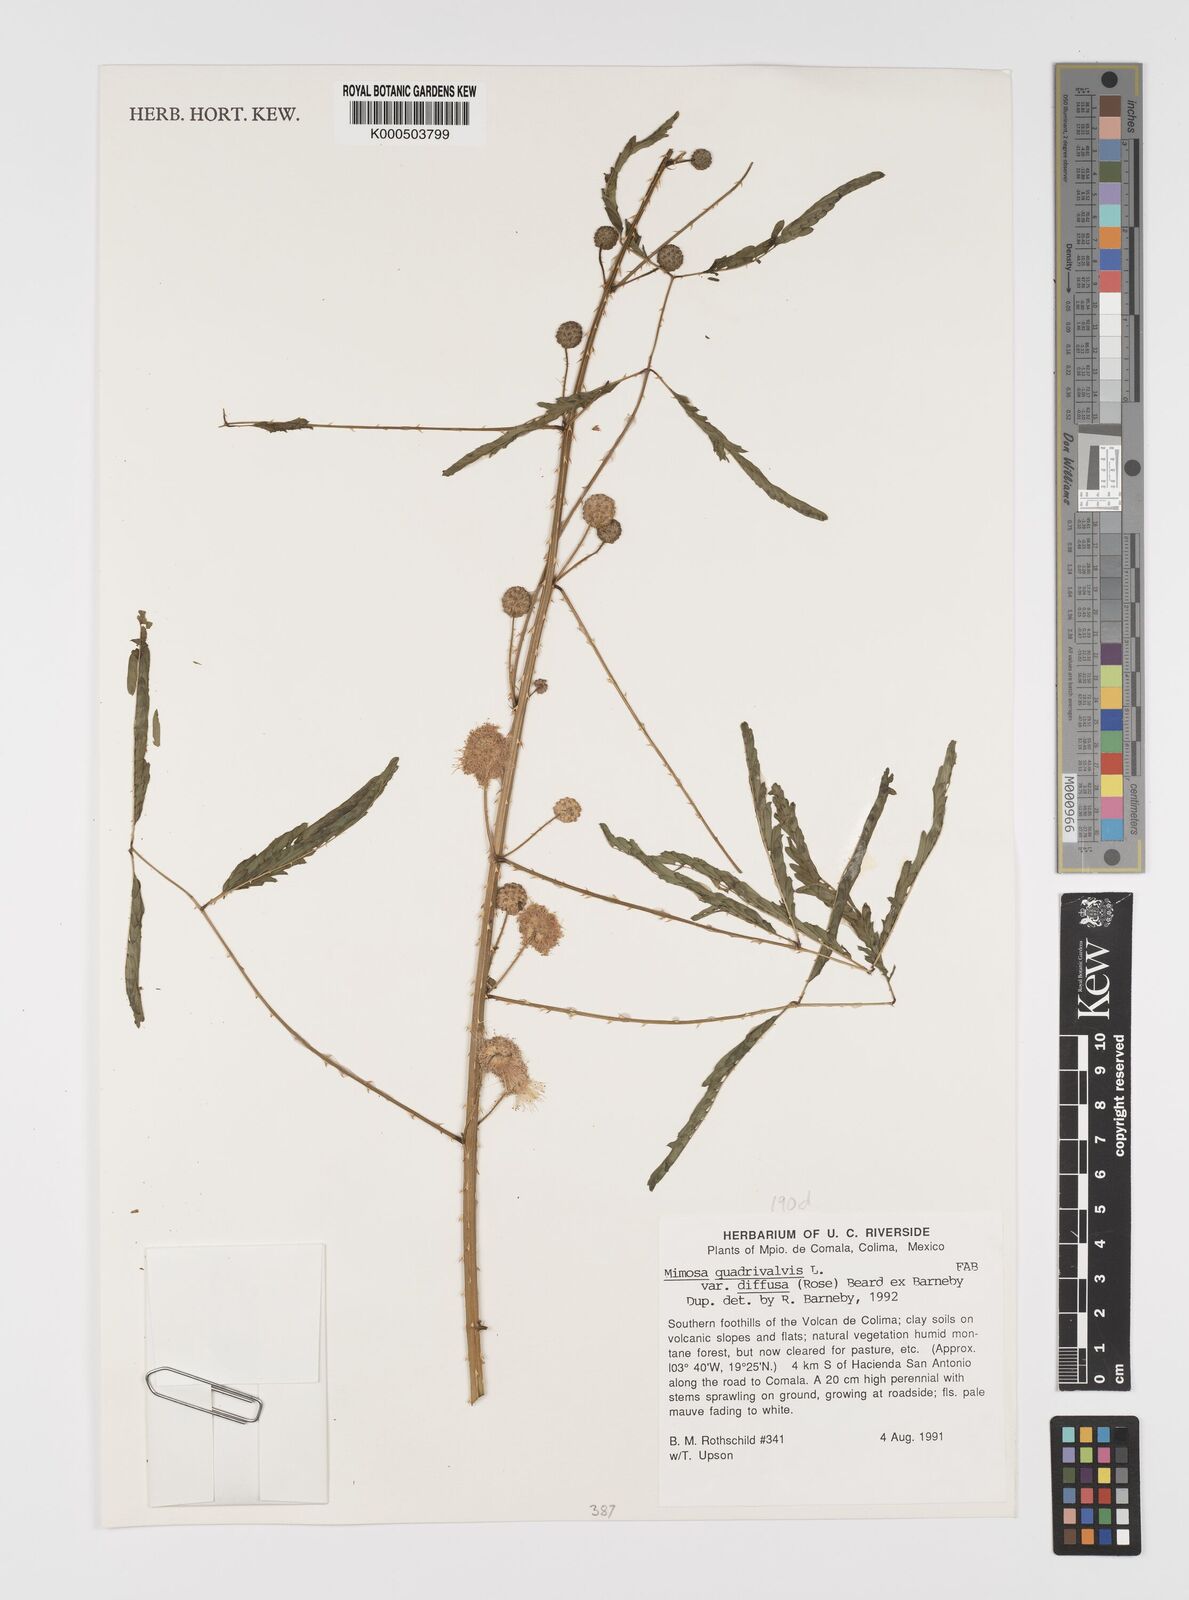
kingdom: Plantae
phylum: Tracheophyta
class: Magnoliopsida
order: Fabales
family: Fabaceae
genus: Mimosa
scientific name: Mimosa quadrivalvis
